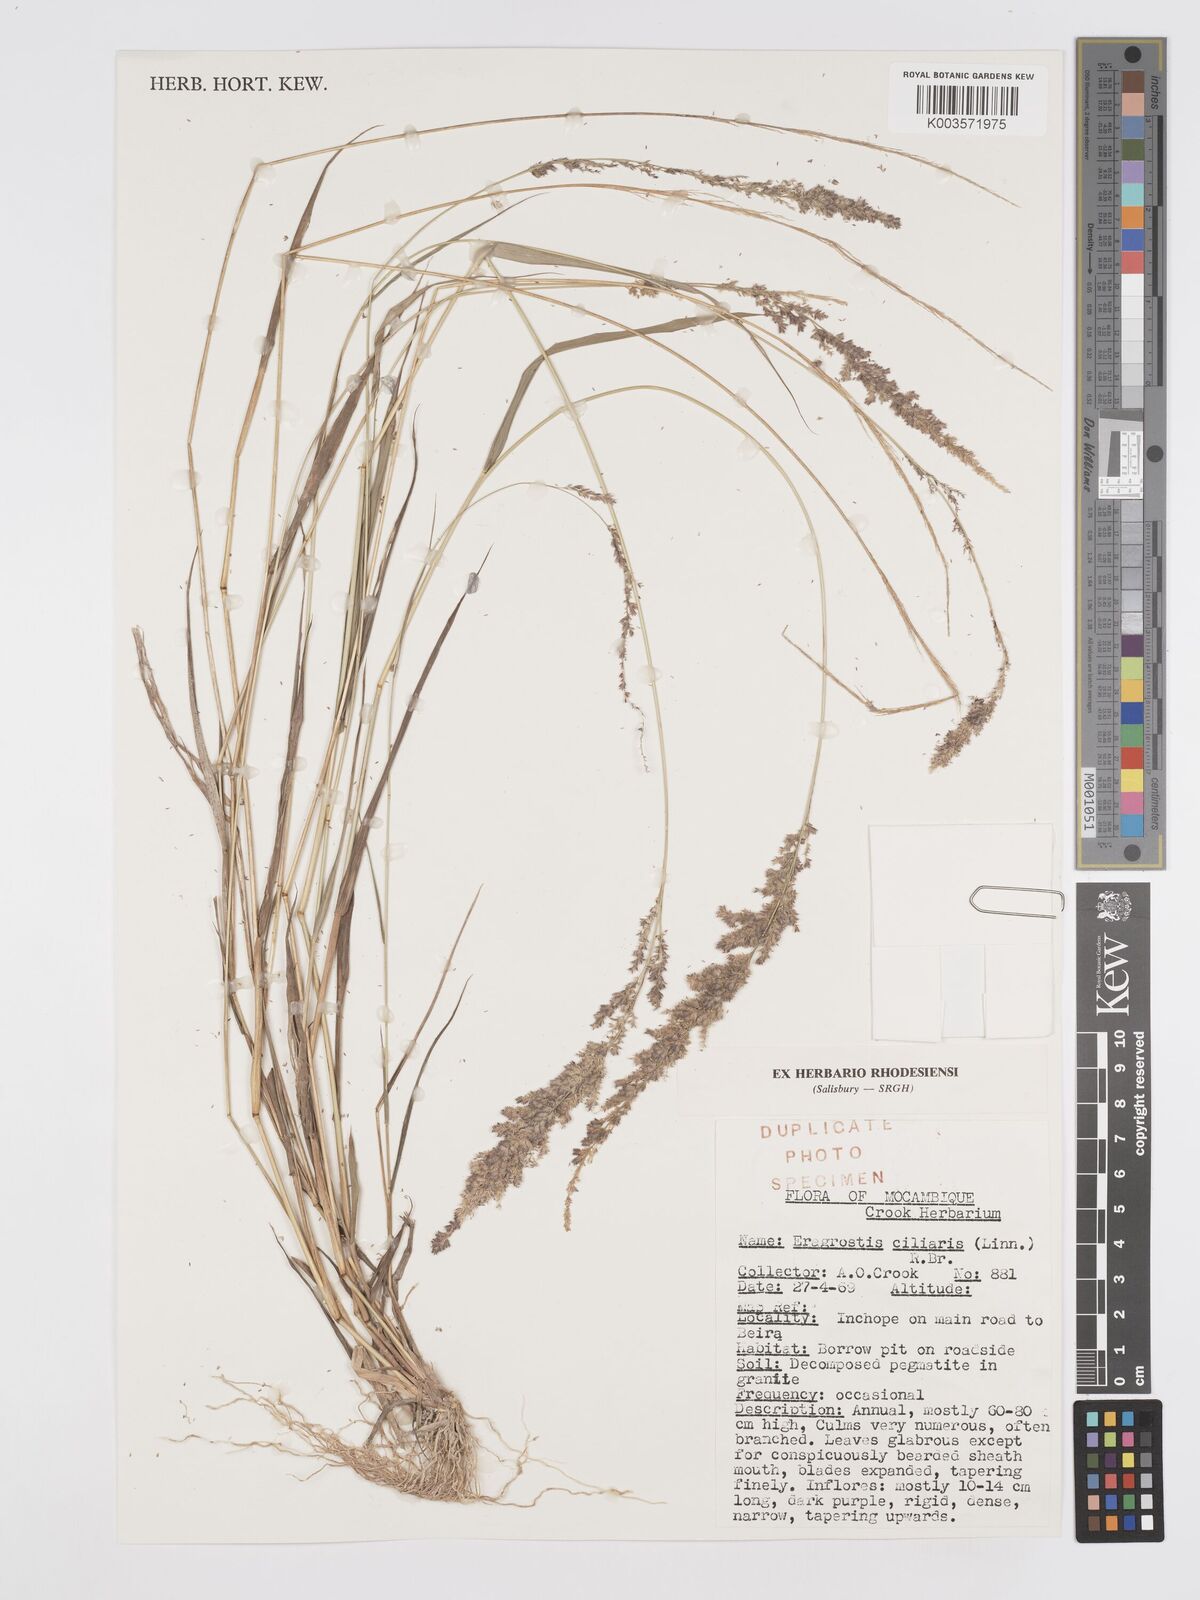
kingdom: Plantae
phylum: Tracheophyta
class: Liliopsida
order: Poales
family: Poaceae
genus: Eragrostis
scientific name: Eragrostis ciliaris
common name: Gophertail lovegrass
